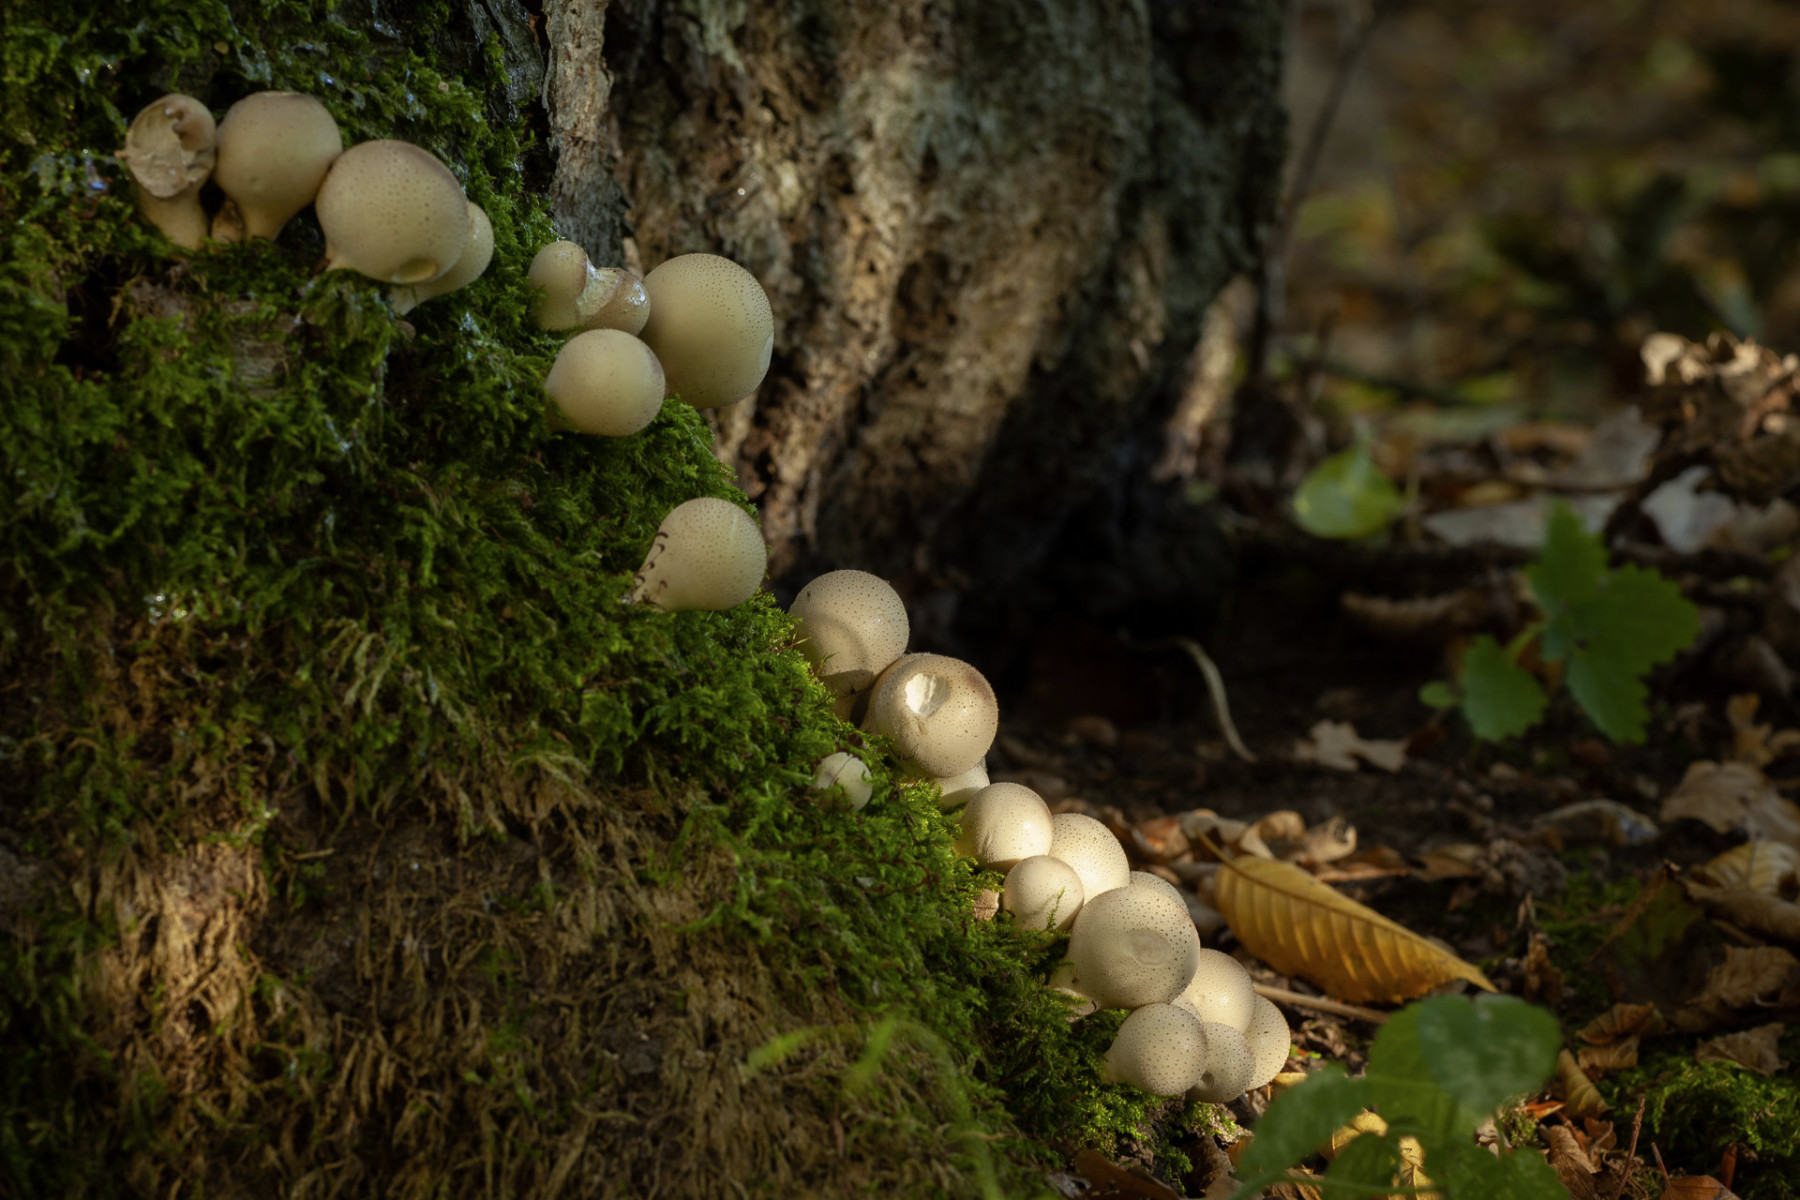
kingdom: Fungi
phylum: Basidiomycota
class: Agaricomycetes
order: Agaricales
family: Lycoperdaceae
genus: Apioperdon
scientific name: Apioperdon pyriforme
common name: pære-støvbold
